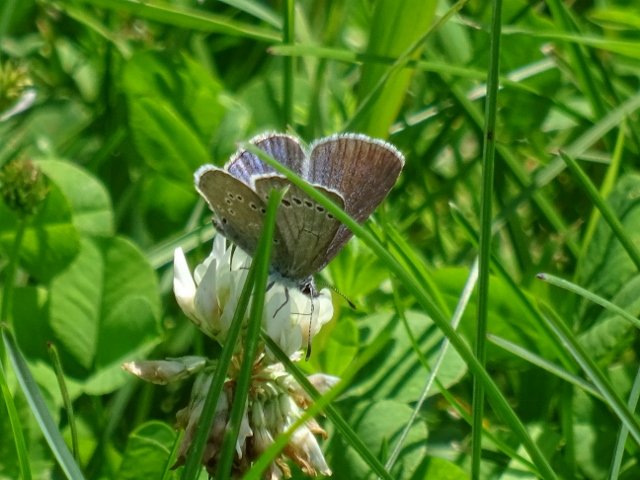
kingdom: Animalia
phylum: Arthropoda
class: Insecta
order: Lepidoptera
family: Lycaenidae
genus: Glaucopsyche
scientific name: Glaucopsyche lygdamus
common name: Silvery Blue
